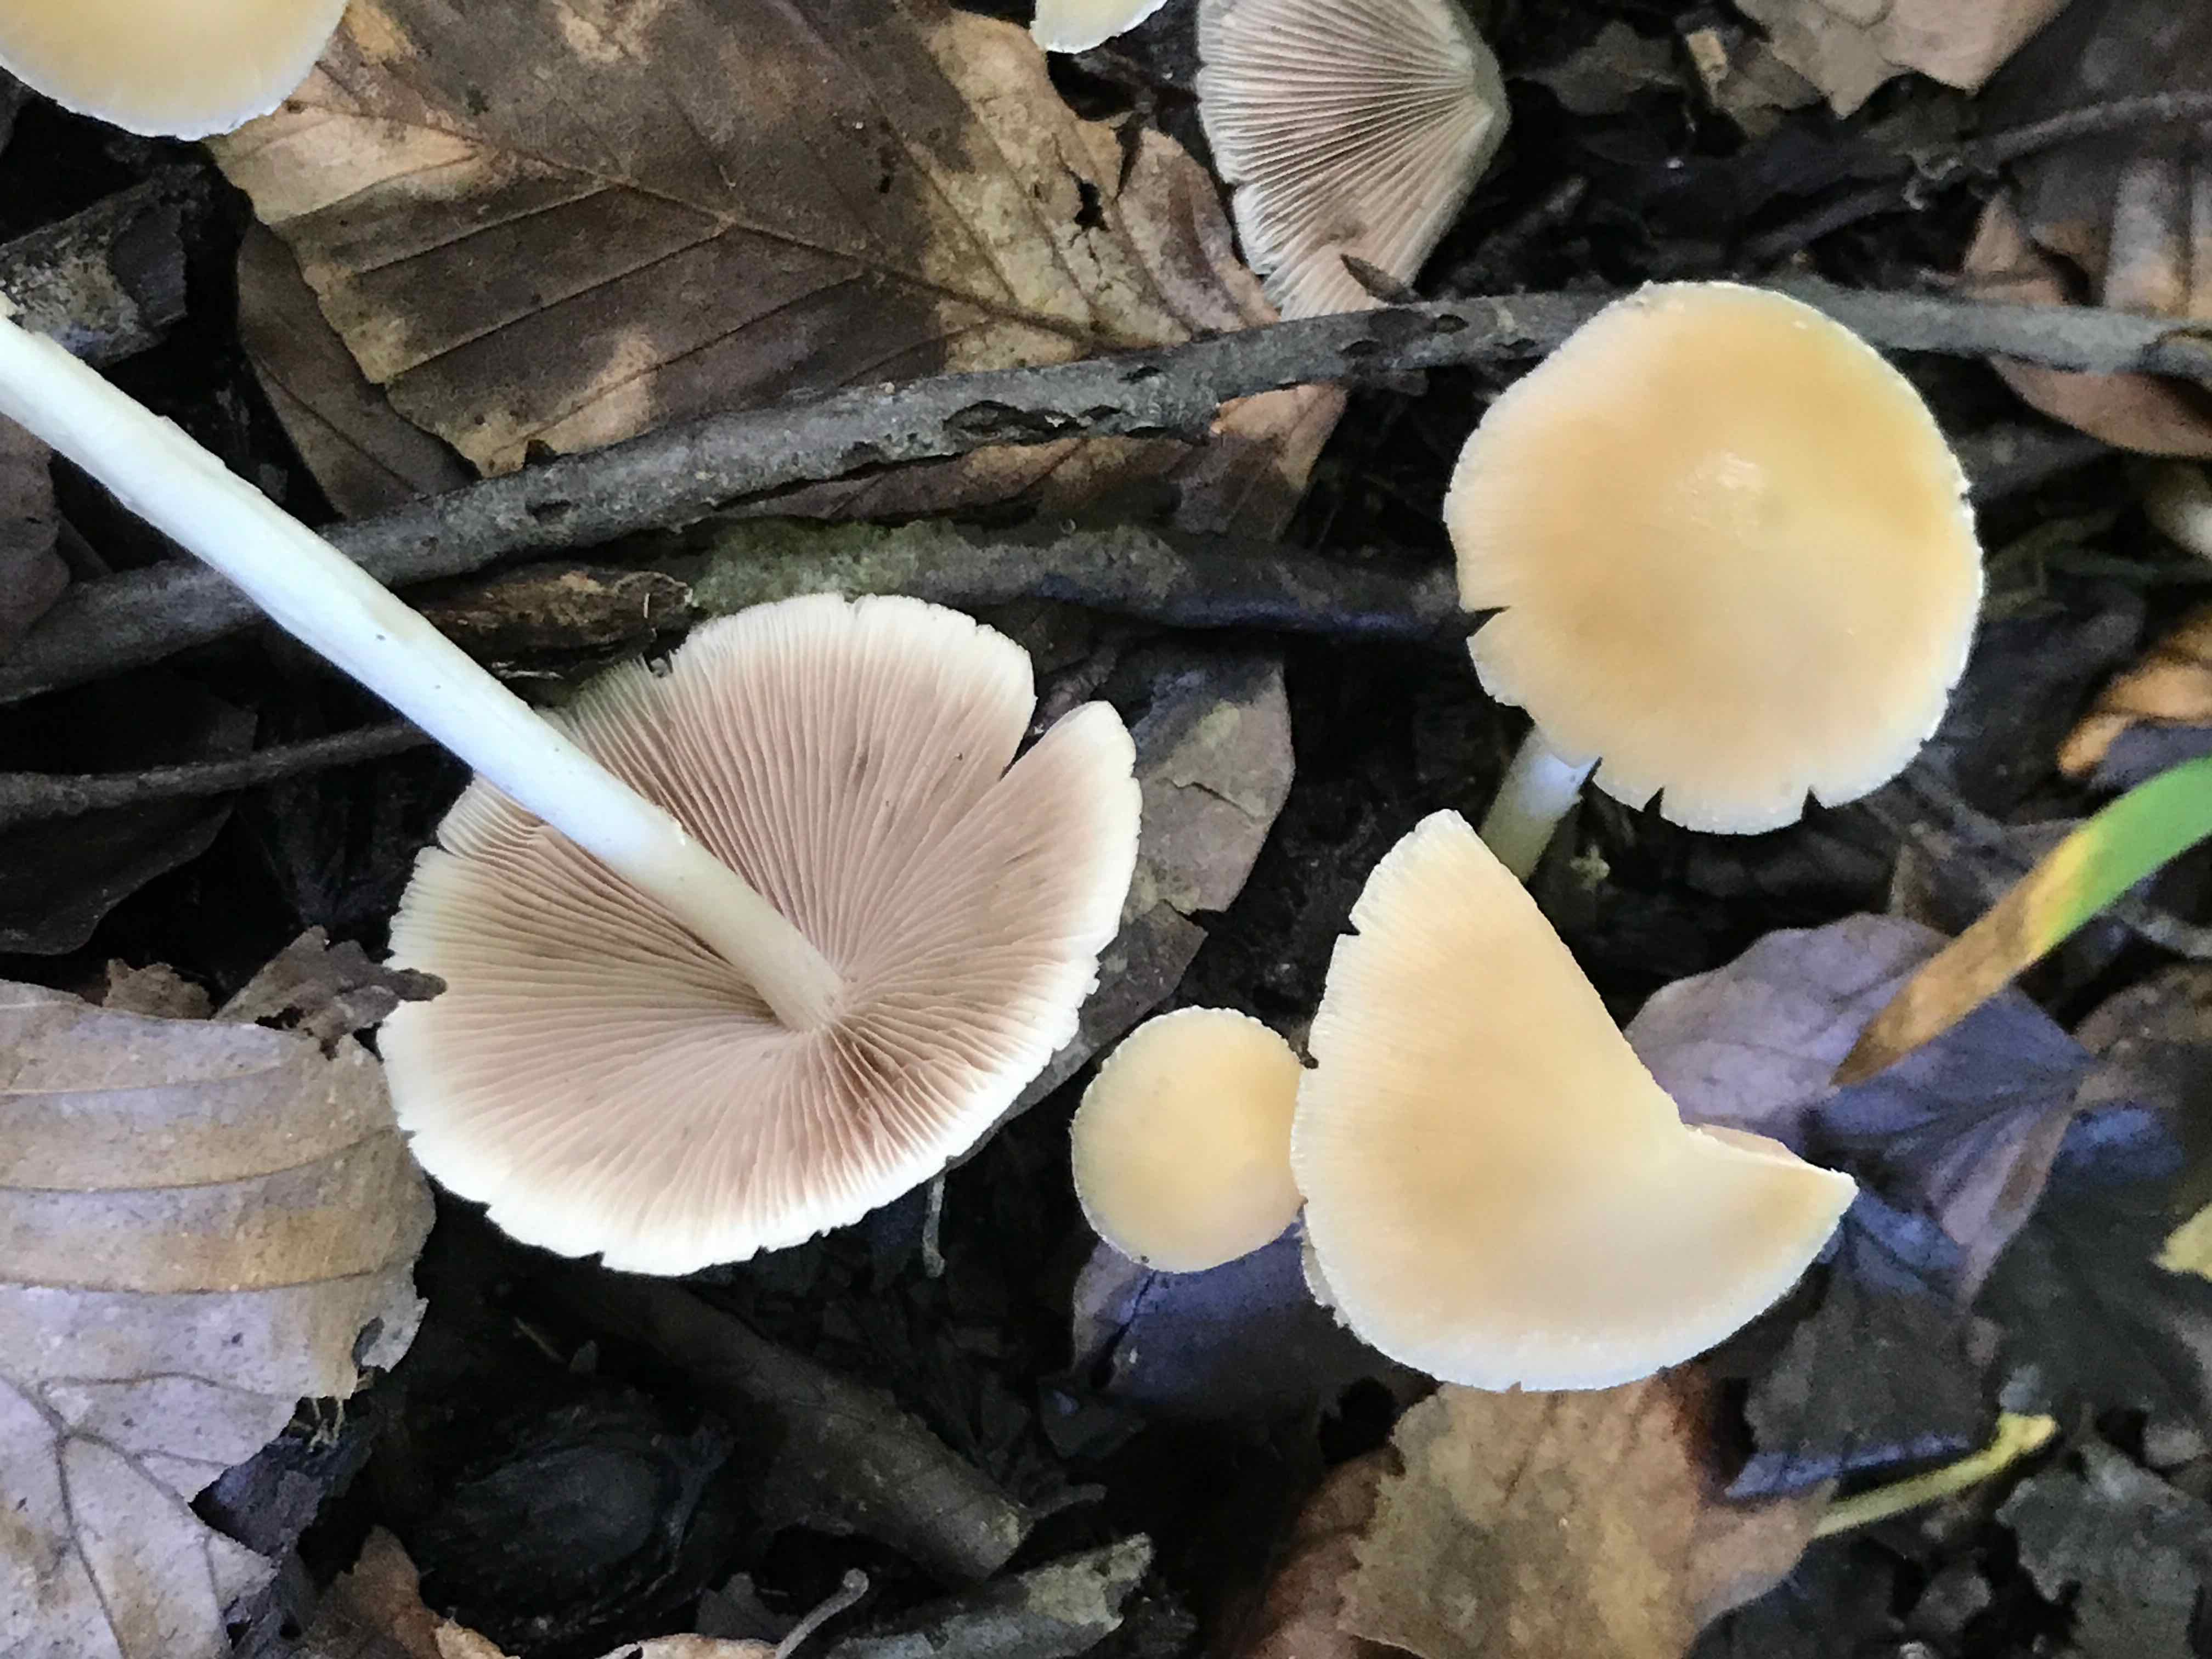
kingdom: Fungi
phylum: Basidiomycota
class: Agaricomycetes
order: Agaricales
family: Psathyrellaceae
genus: Candolleomyces
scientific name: Candolleomyces candolleanus
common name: Candolles mørkhat
